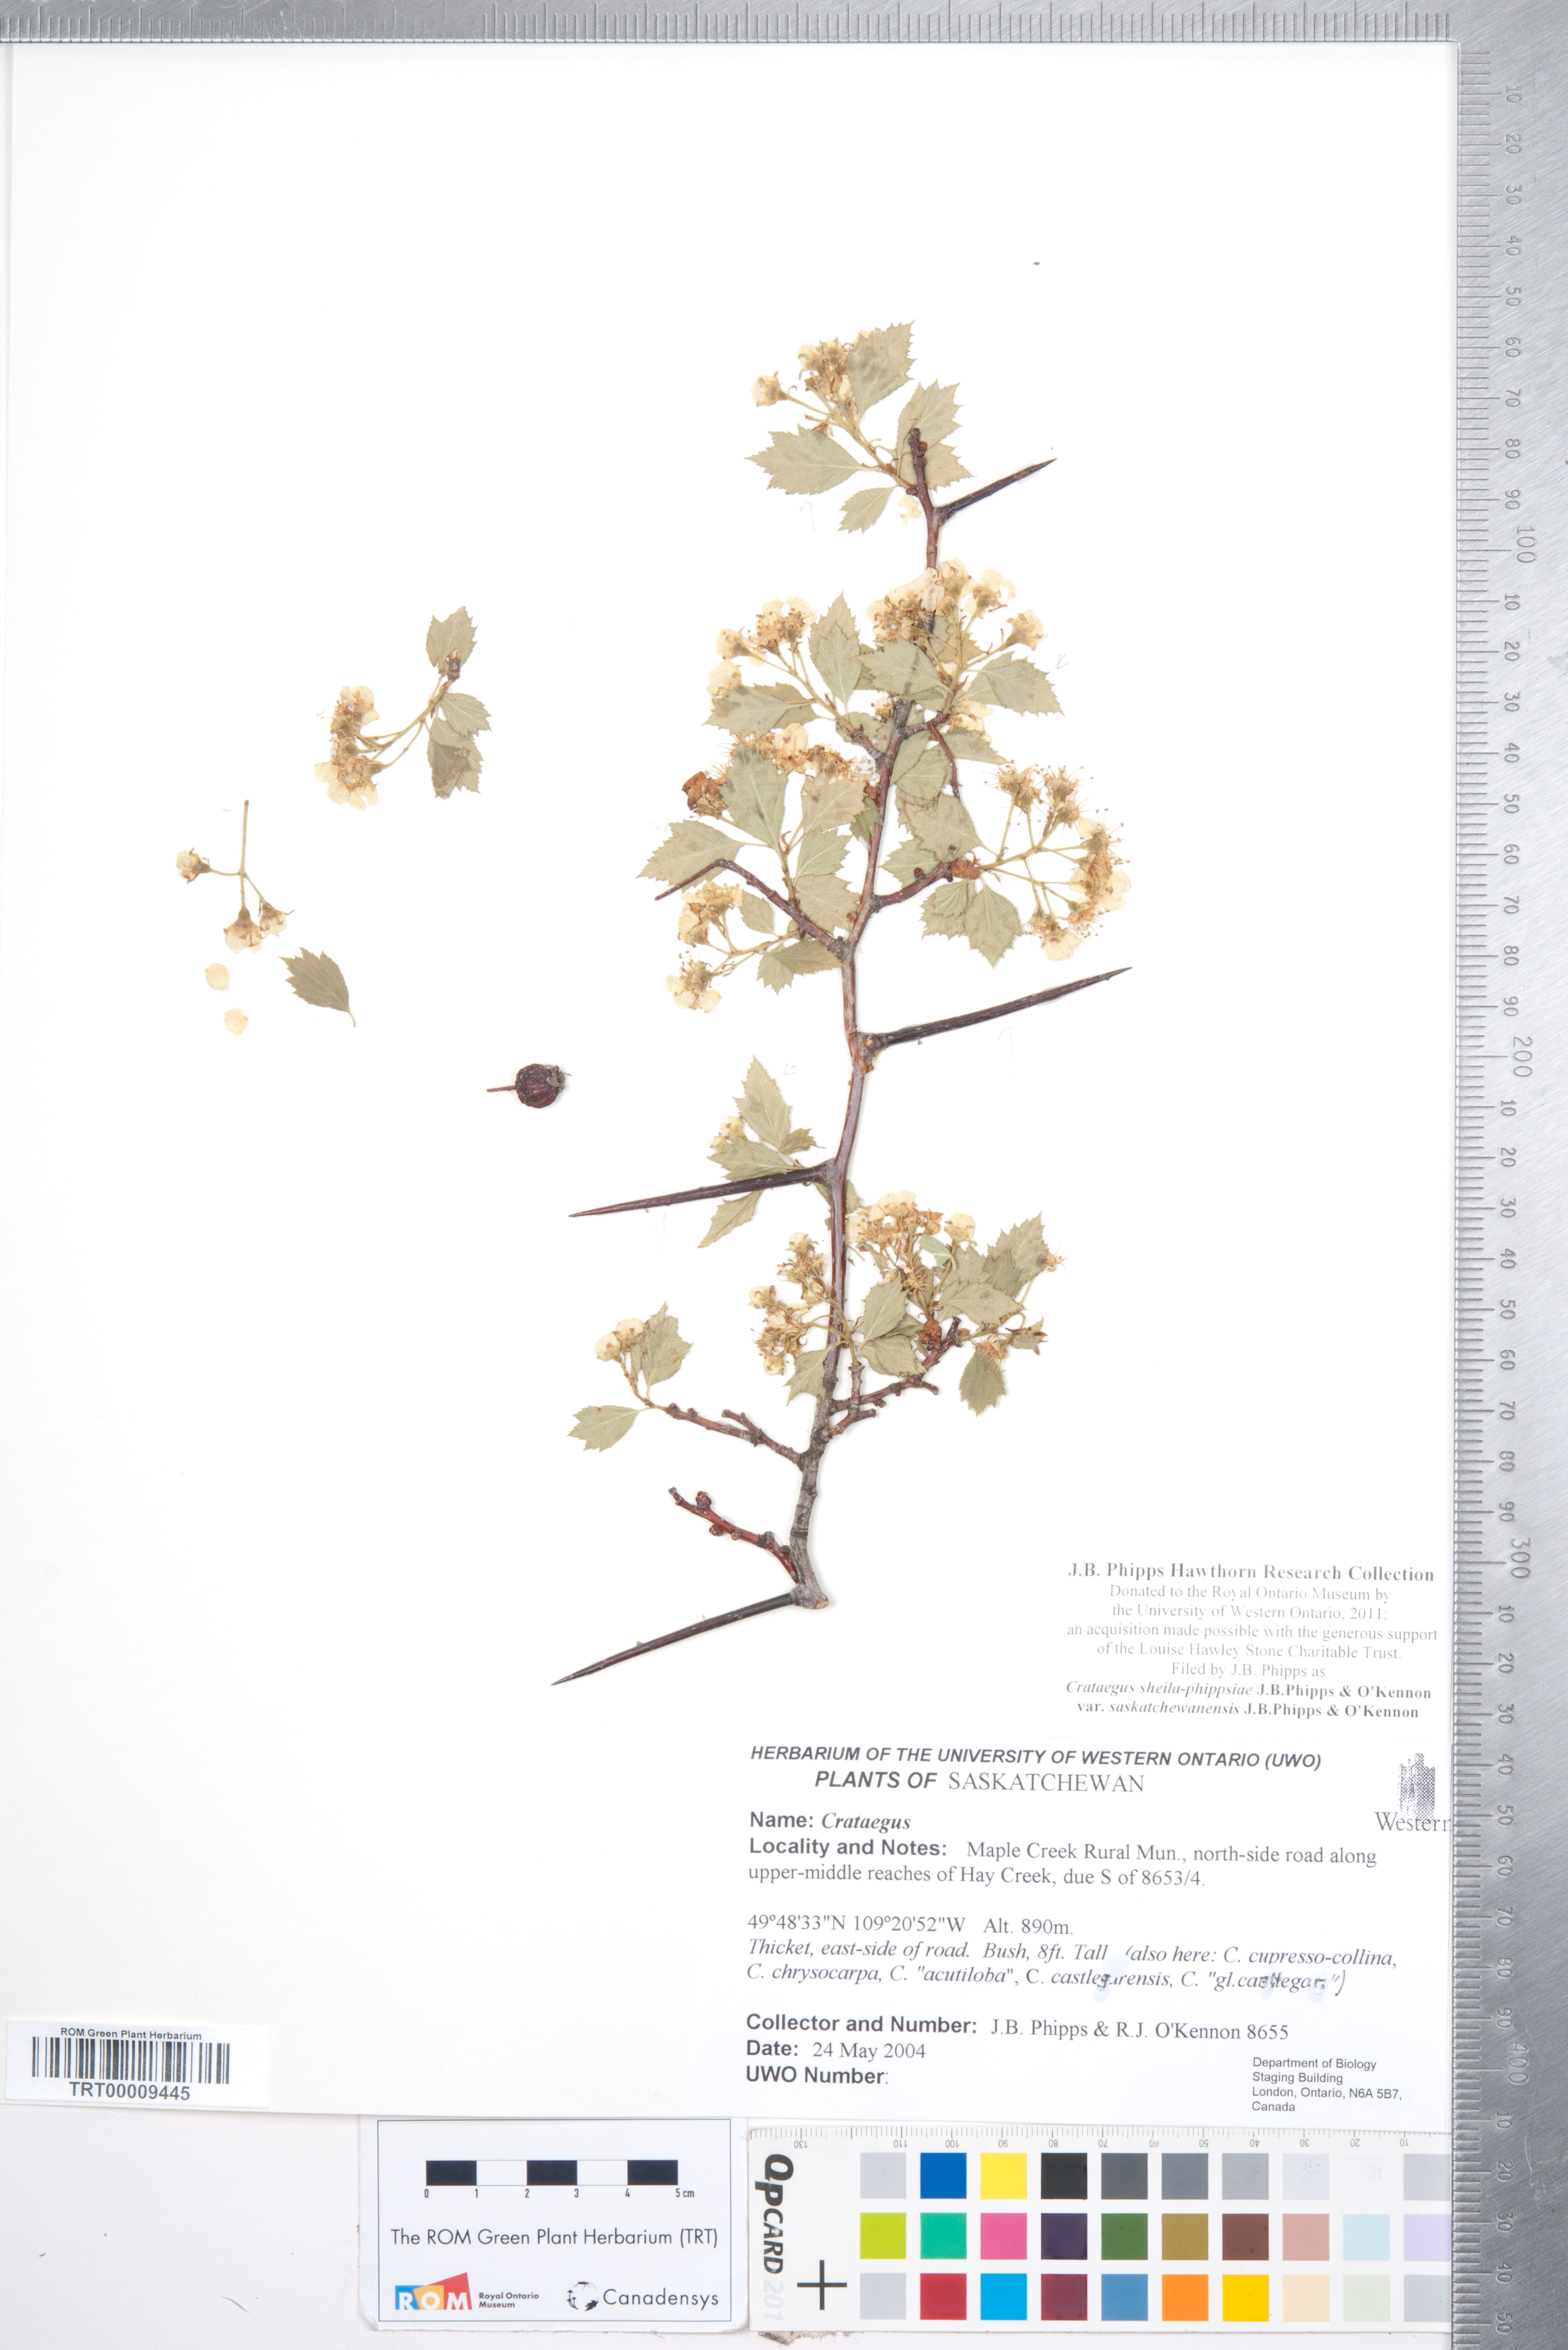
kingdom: Plantae
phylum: Tracheophyta
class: Magnoliopsida
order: Rosales
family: Rosaceae
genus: Crataegus
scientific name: Crataegus sheila-phippsiae
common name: Sheila phipps' hawthorn
